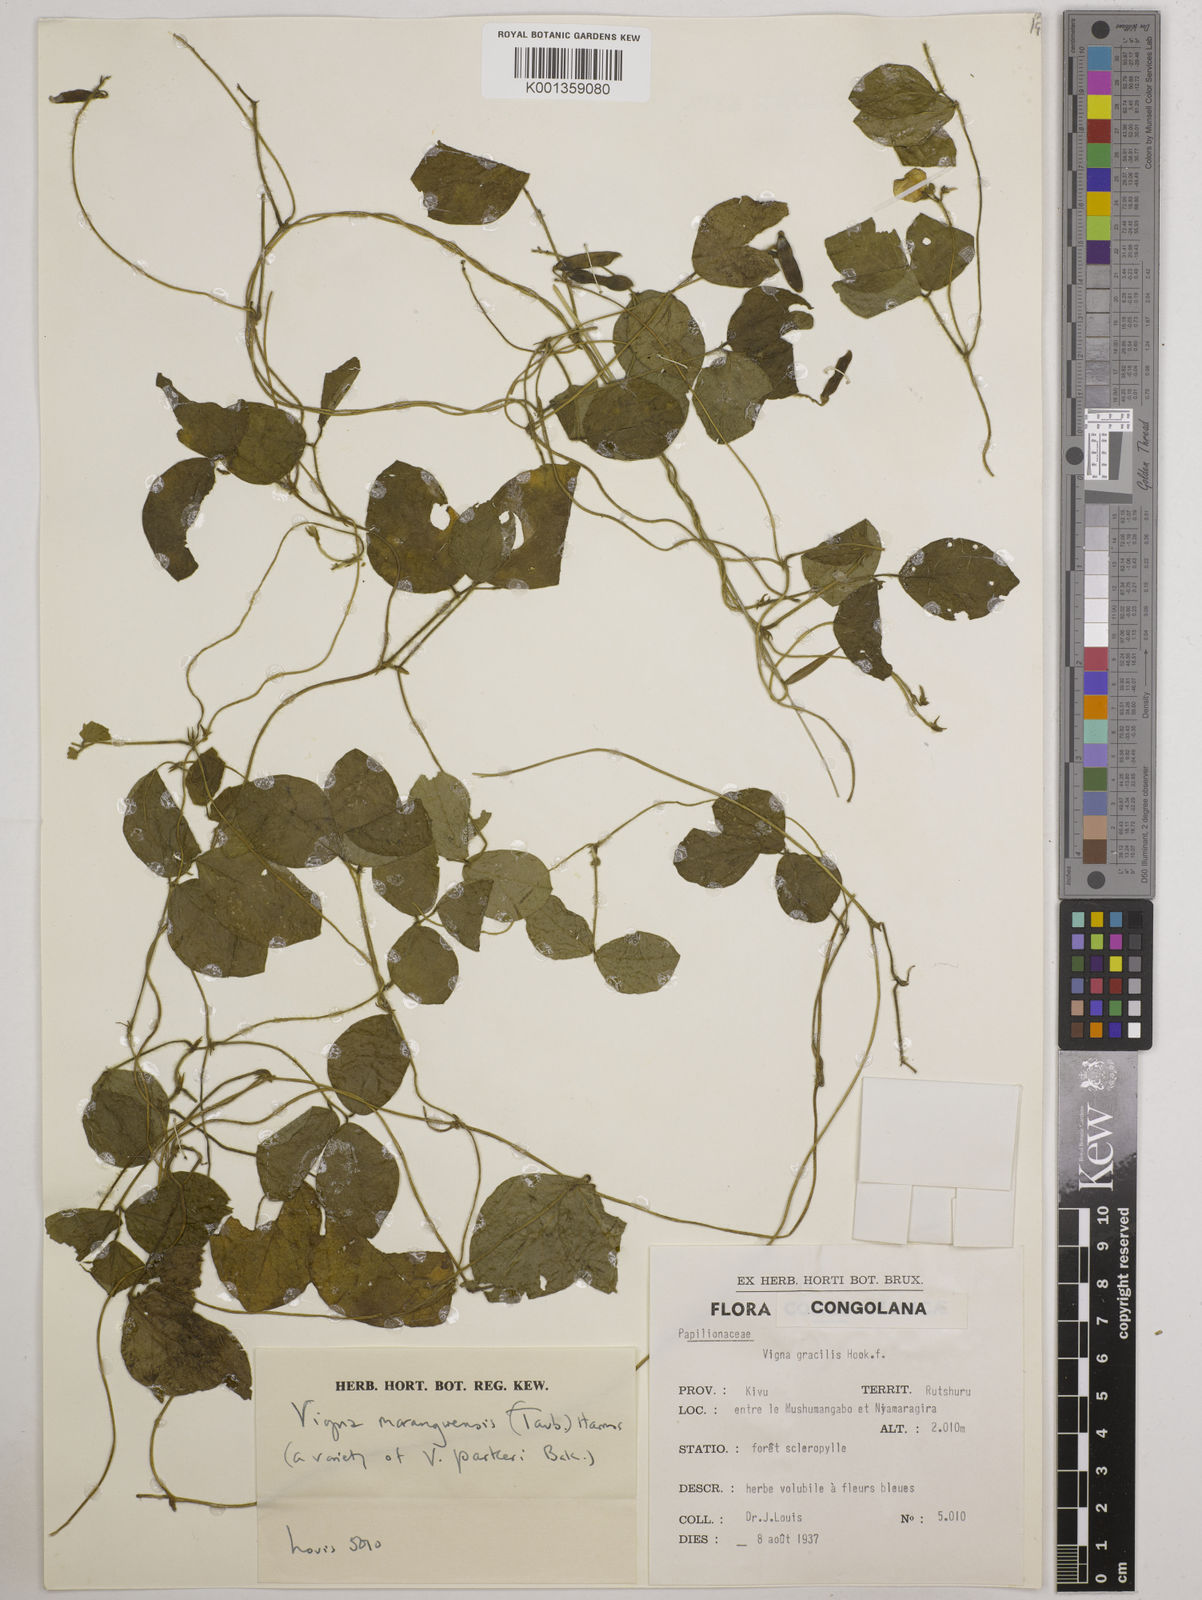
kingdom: Plantae
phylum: Tracheophyta
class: Magnoliopsida
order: Fabales
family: Fabaceae
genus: Vigna
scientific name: Vigna
